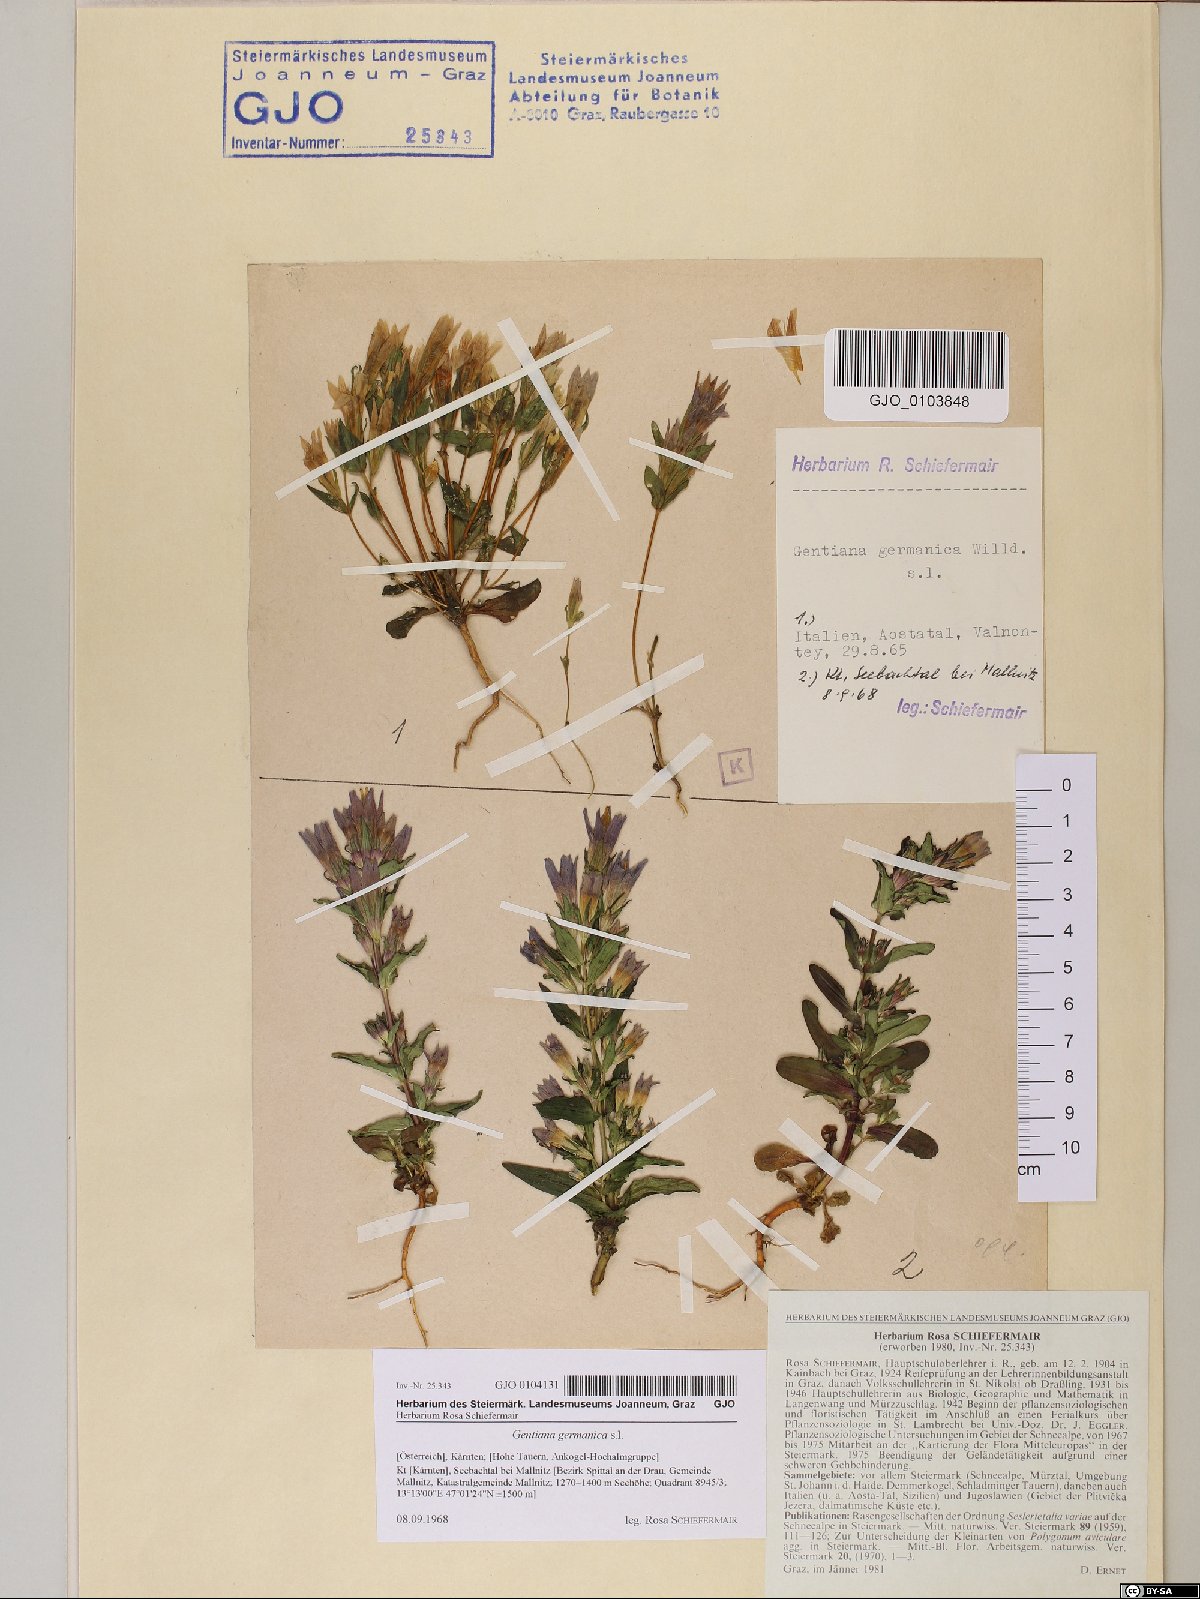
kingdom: Plantae
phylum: Tracheophyta
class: Magnoliopsida
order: Gentianales
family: Gentianaceae
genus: Gentianella
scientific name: Gentianella germanica
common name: Chiltern-gentian
